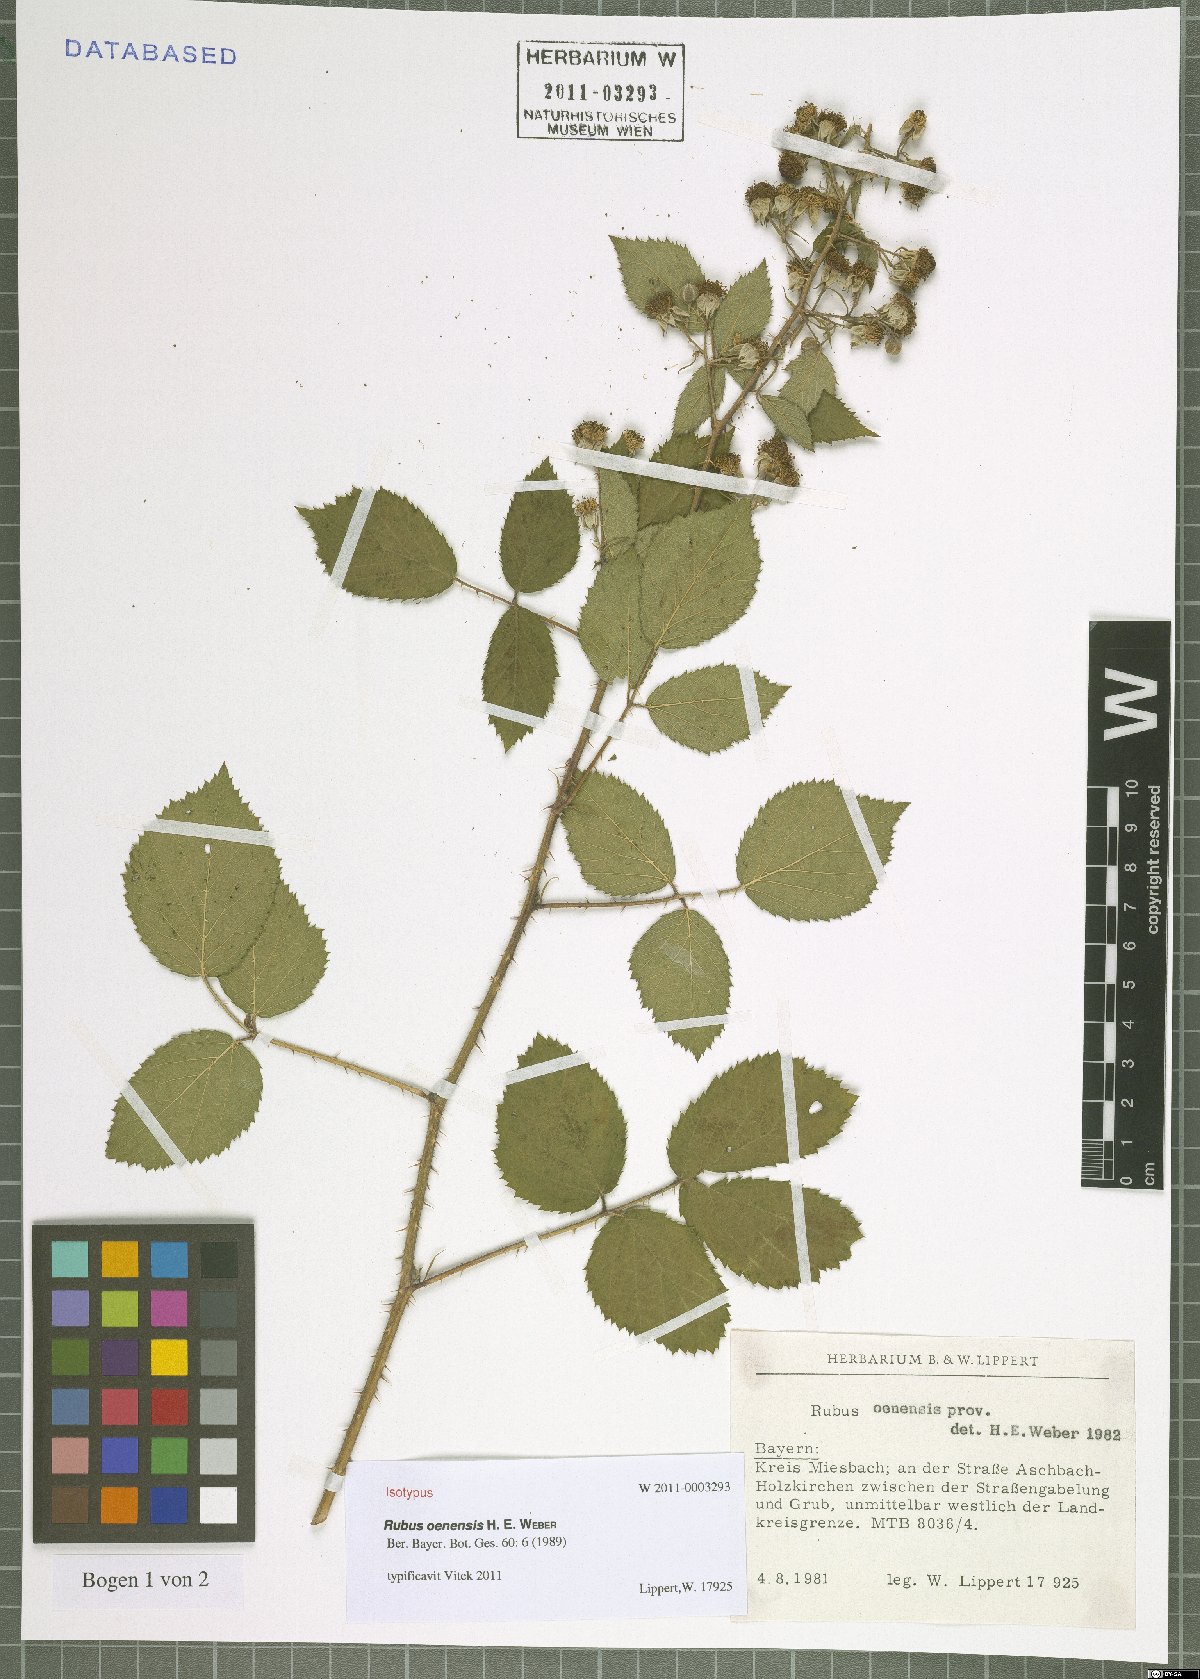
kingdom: Plantae
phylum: Tracheophyta
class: Magnoliopsida
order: Rosales
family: Rosaceae
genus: Rubus
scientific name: Rubus oenensis
